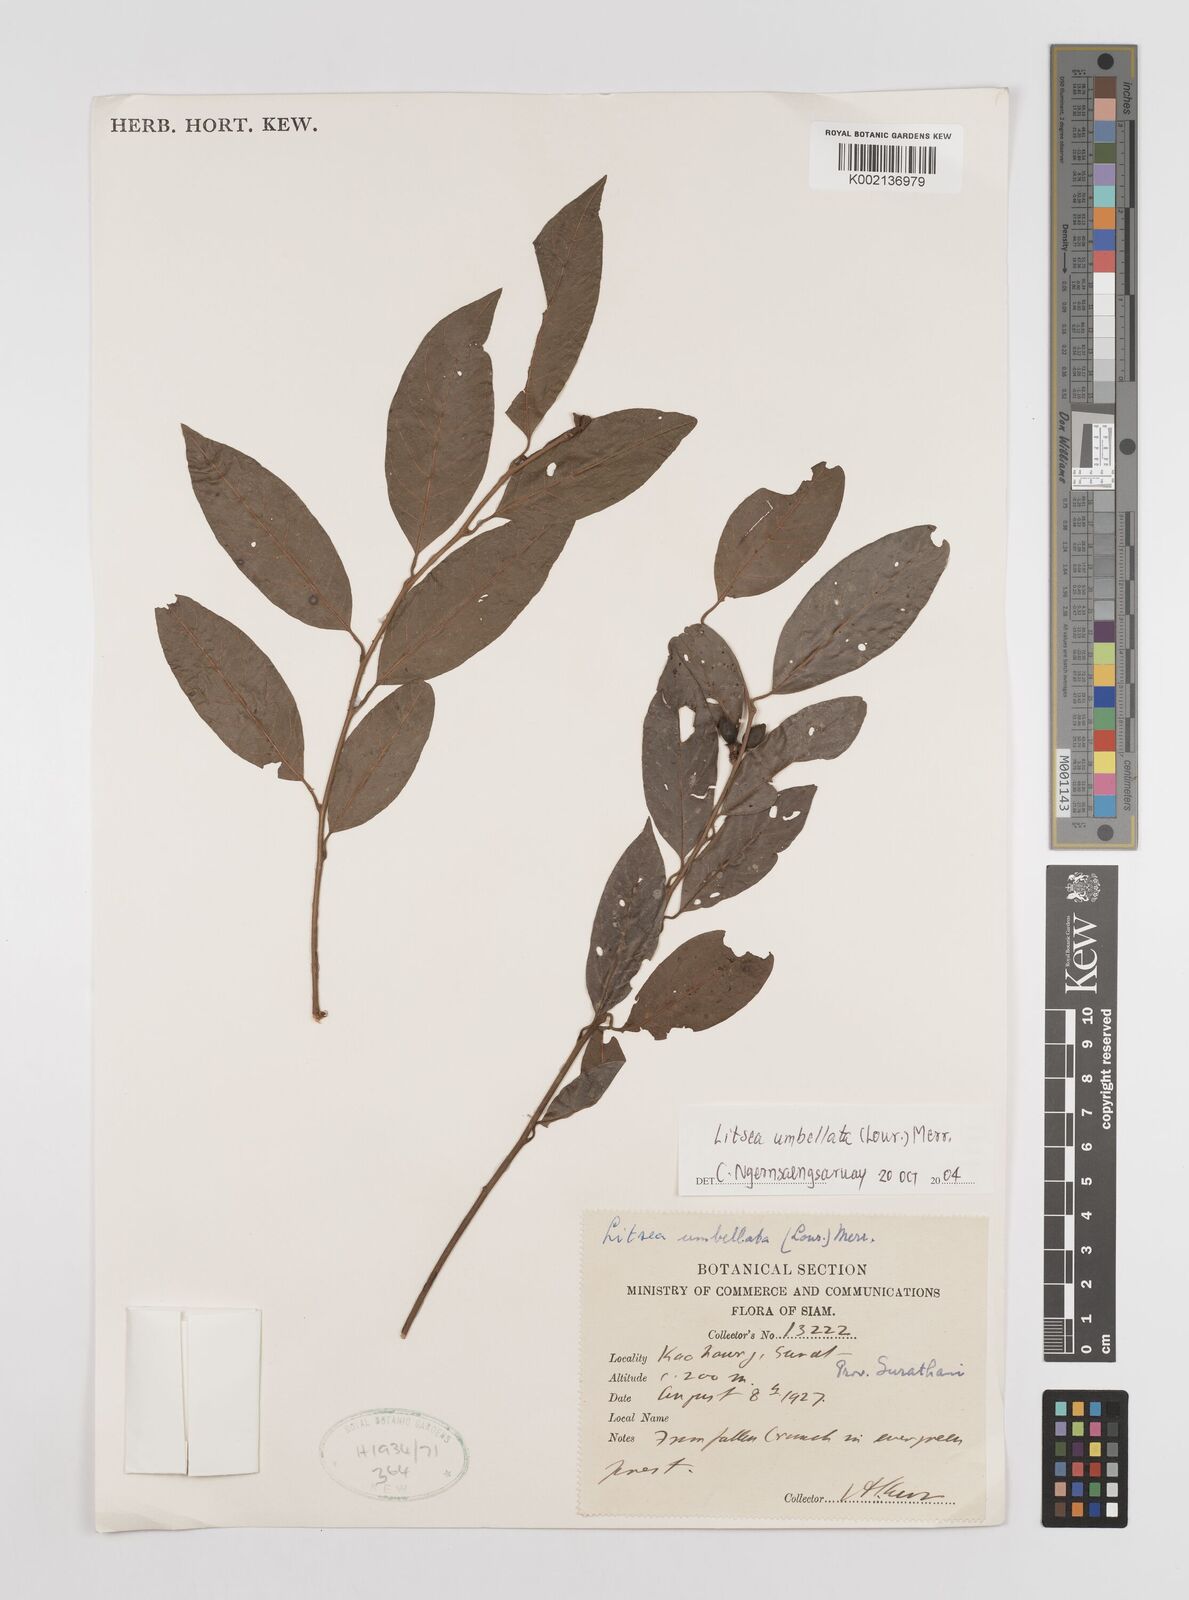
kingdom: Plantae
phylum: Tracheophyta
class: Magnoliopsida
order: Laurales
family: Lauraceae
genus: Litsea
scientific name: Litsea umbellata
